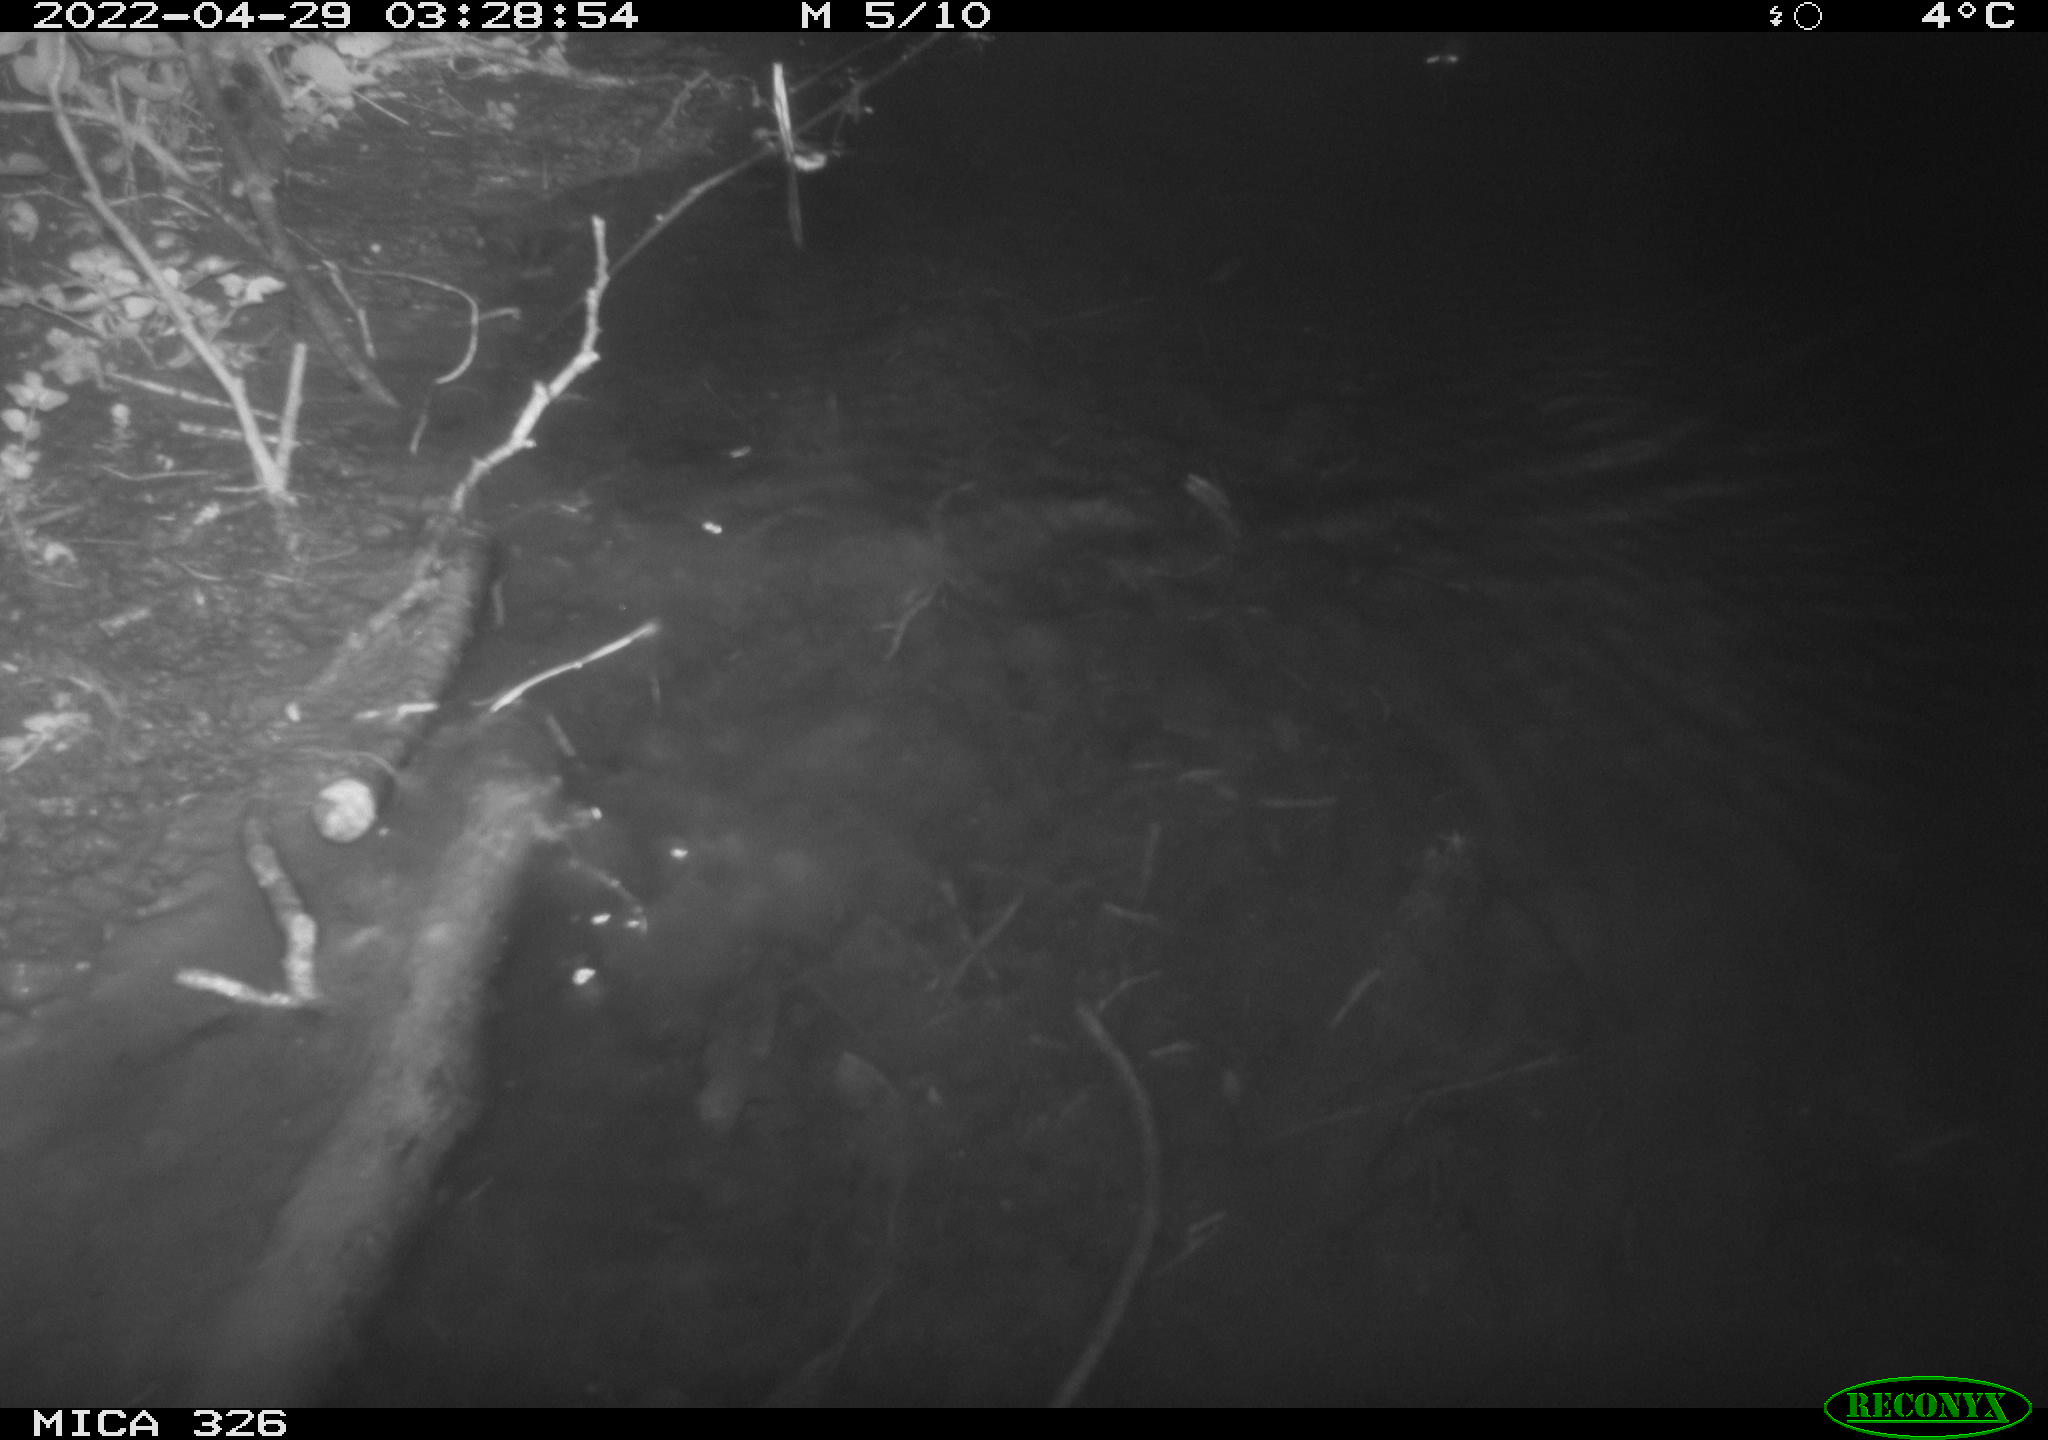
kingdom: Animalia
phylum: Chordata
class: Mammalia
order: Rodentia
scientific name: Rodentia
